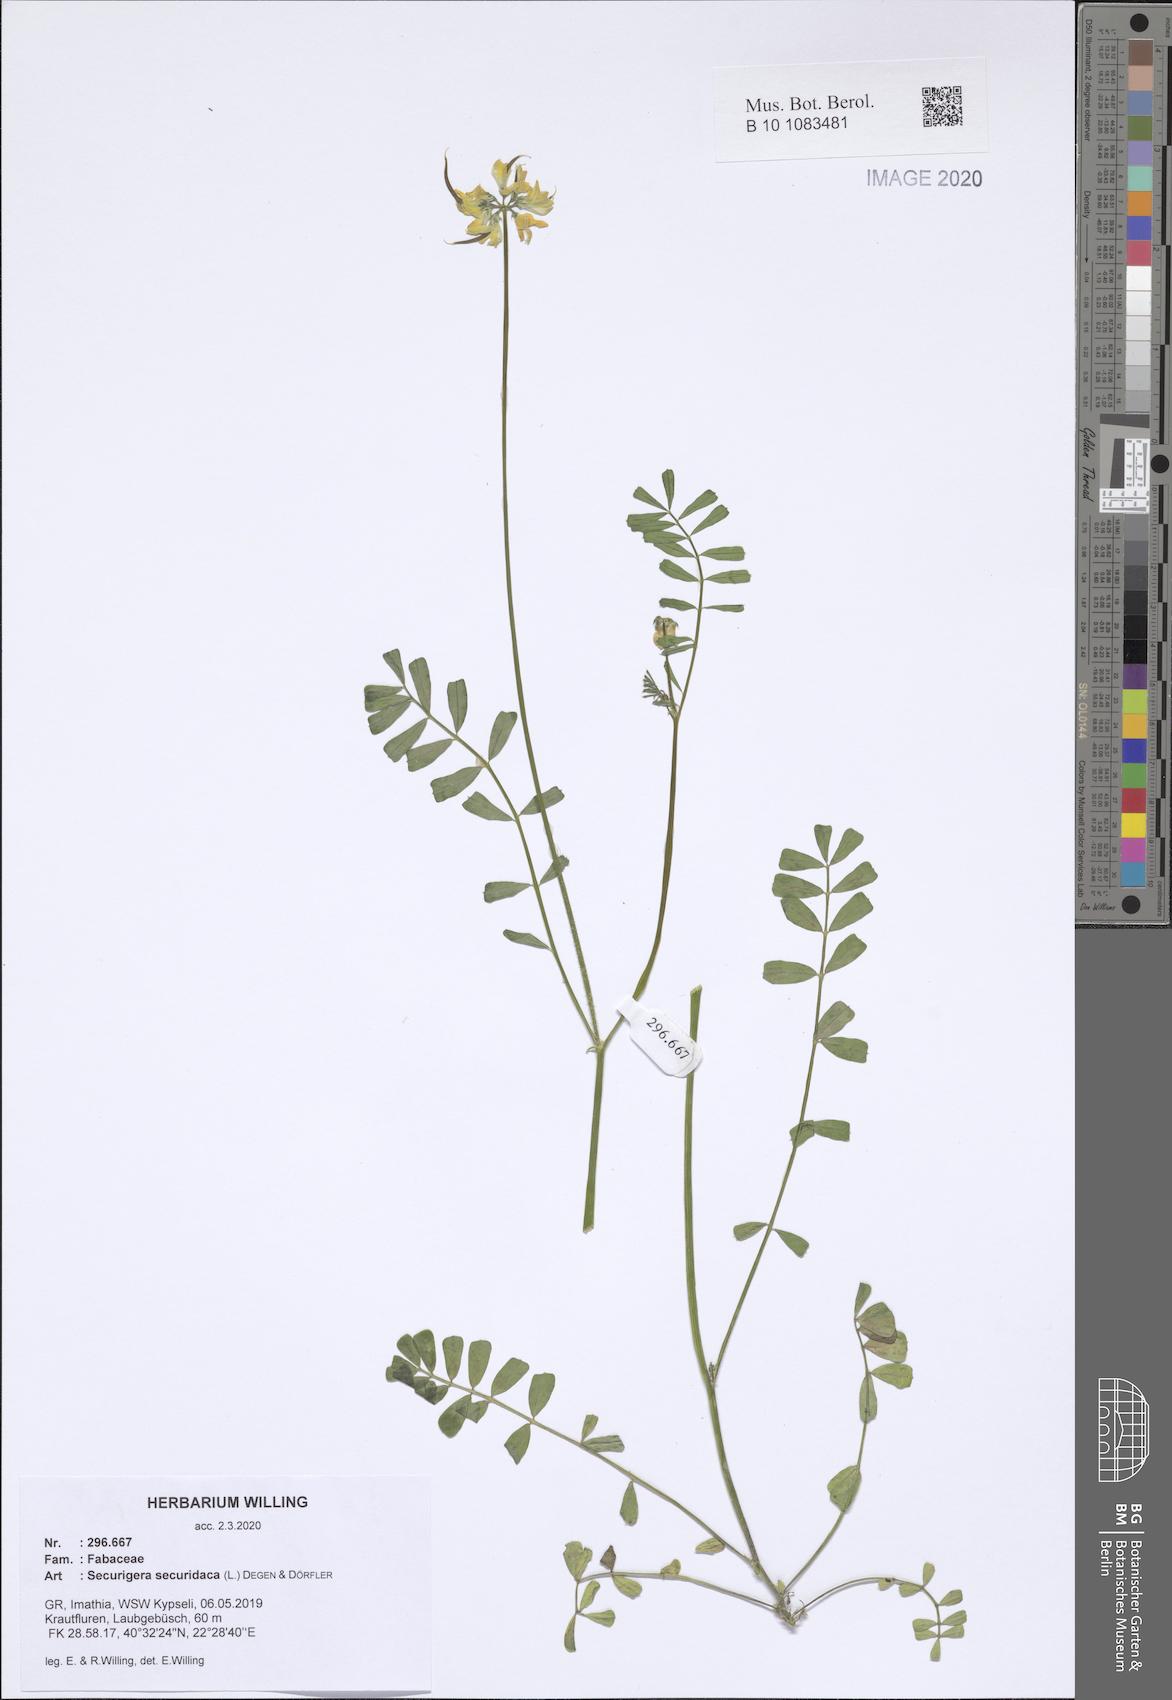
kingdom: Plantae
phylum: Tracheophyta
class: Magnoliopsida
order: Fabales
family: Fabaceae
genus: Coronilla
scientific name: Coronilla securidaca
